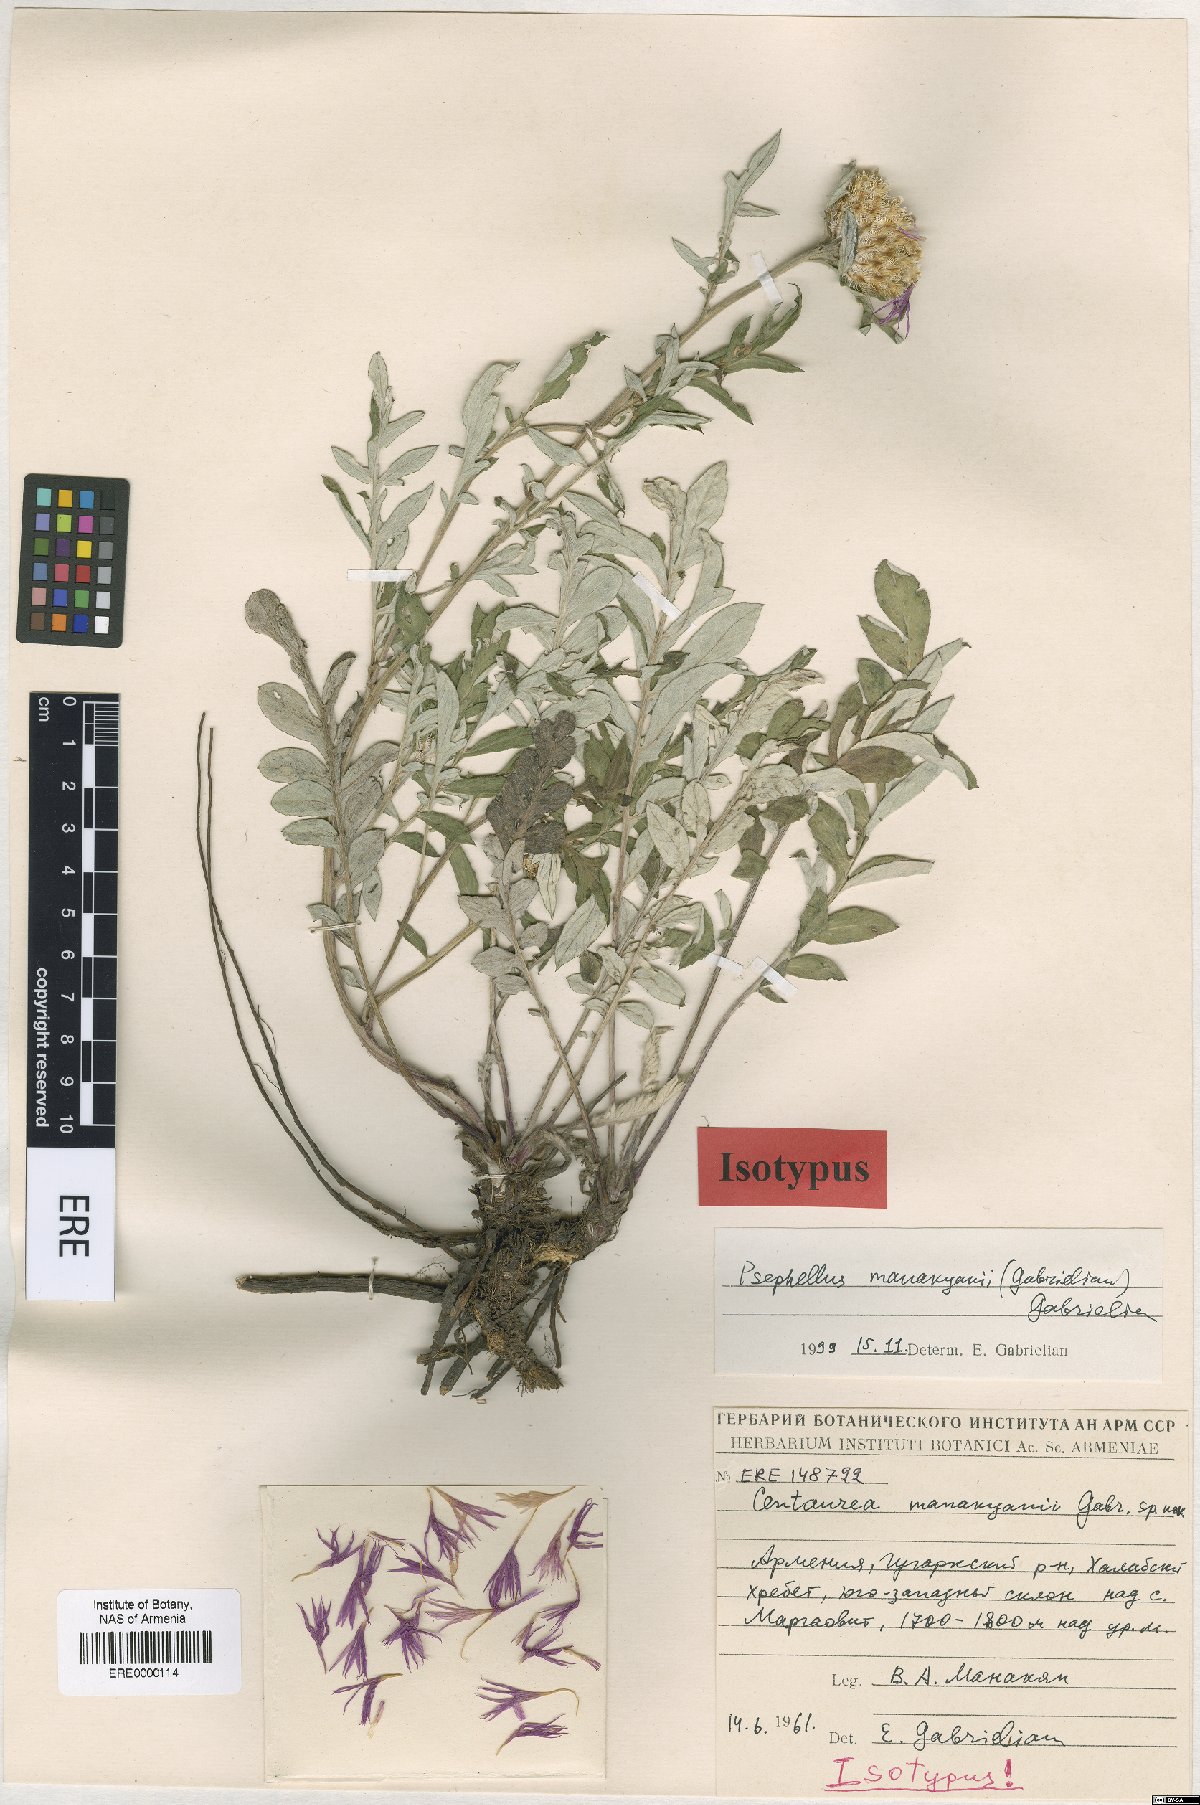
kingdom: Plantae
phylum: Tracheophyta
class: Magnoliopsida
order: Asterales
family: Asteraceae
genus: Psephellus
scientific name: Psephellus manakianii
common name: Manakyan's cornflower
